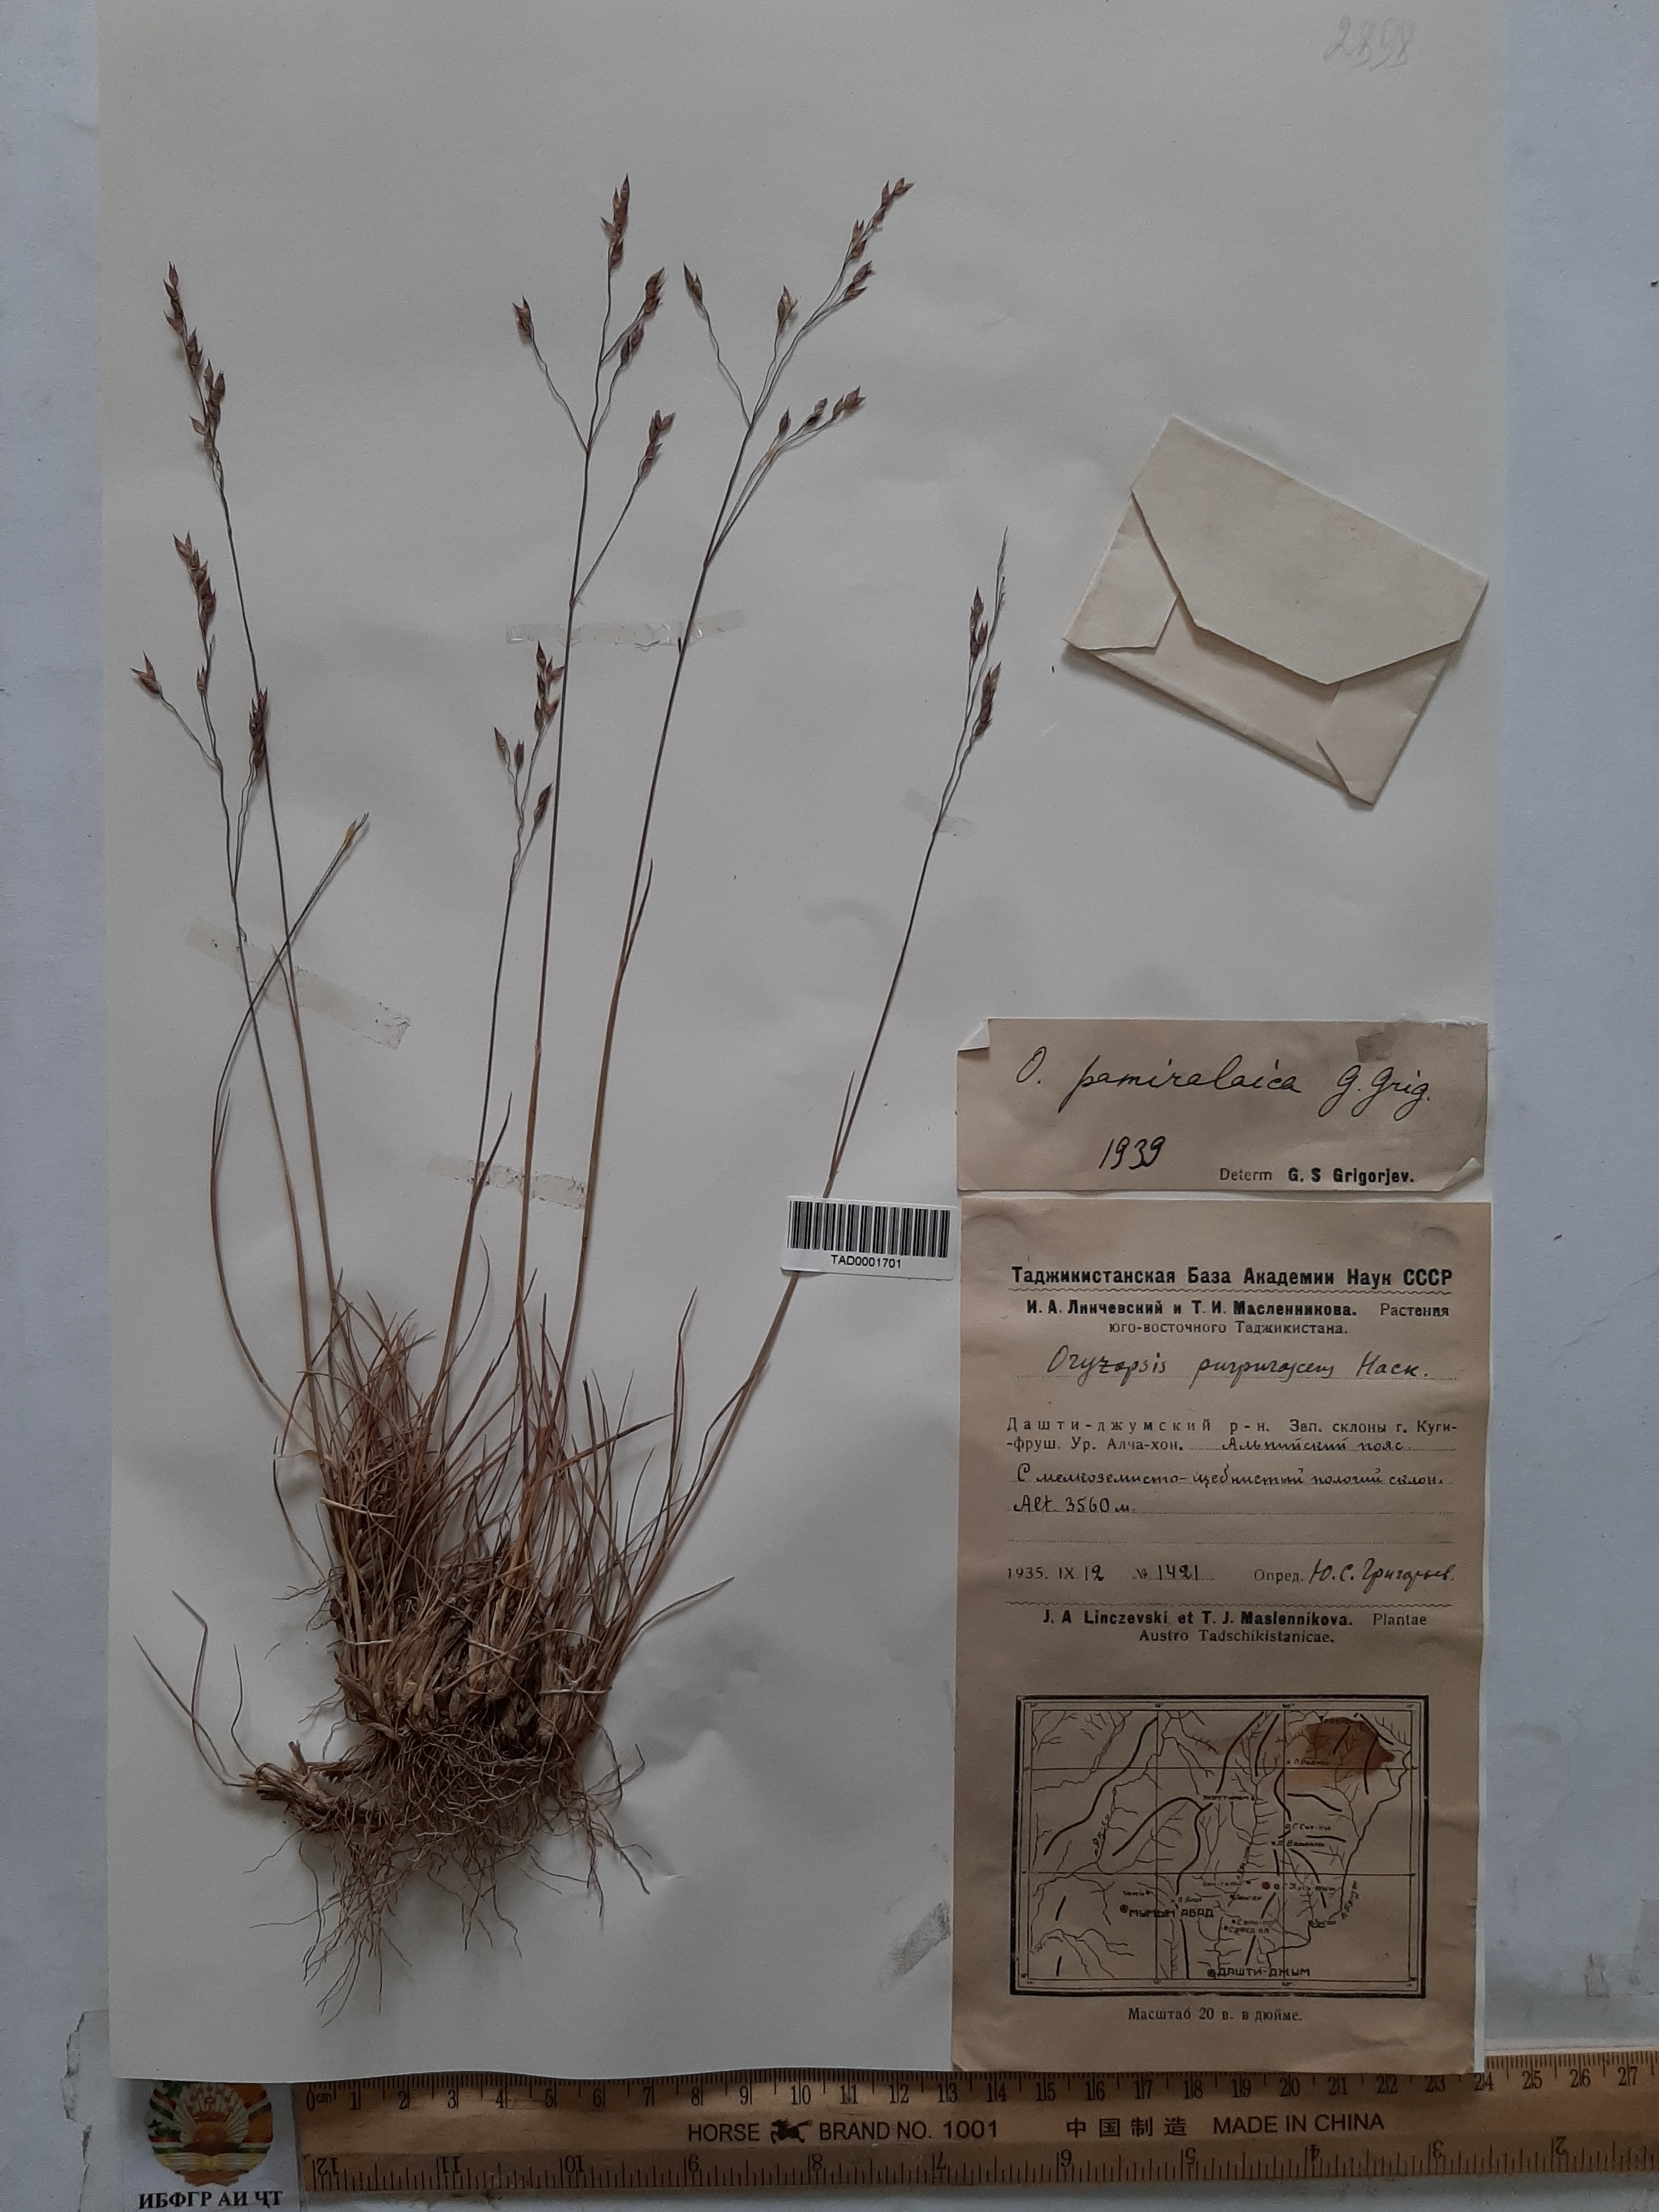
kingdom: Plantae
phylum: Tracheophyta
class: Liliopsida
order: Poales
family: Poaceae
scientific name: Poaceae
